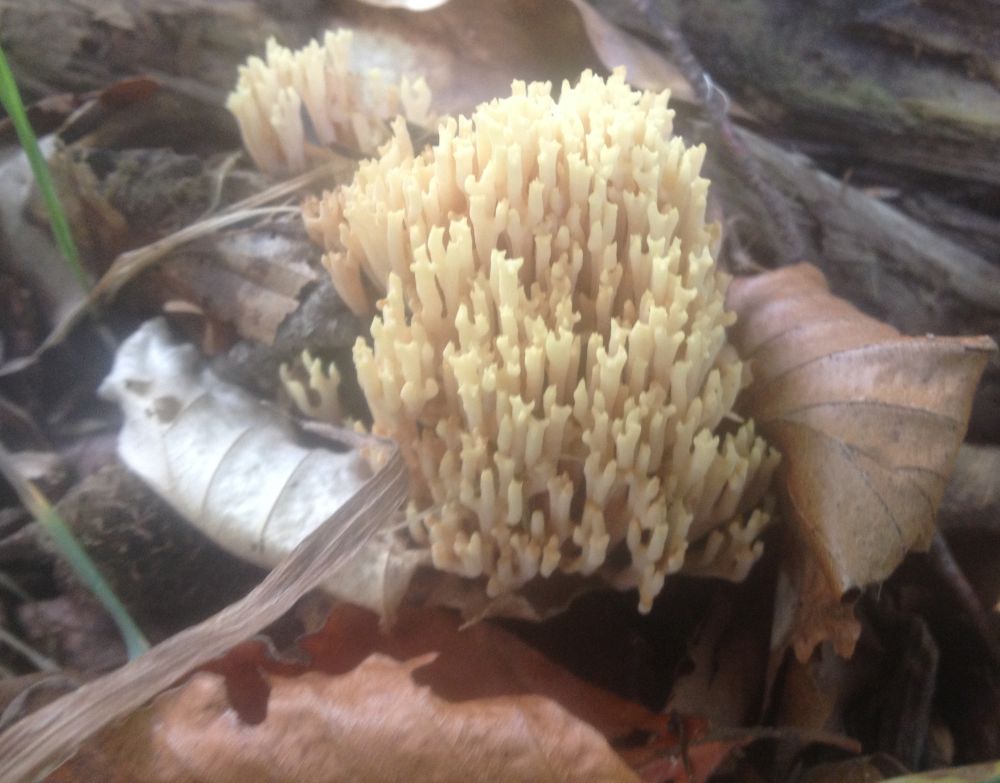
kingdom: Fungi
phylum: Basidiomycota
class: Agaricomycetes
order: Gomphales
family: Gomphaceae
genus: Ramaria
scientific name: Ramaria stricta
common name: rank koralsvamp
